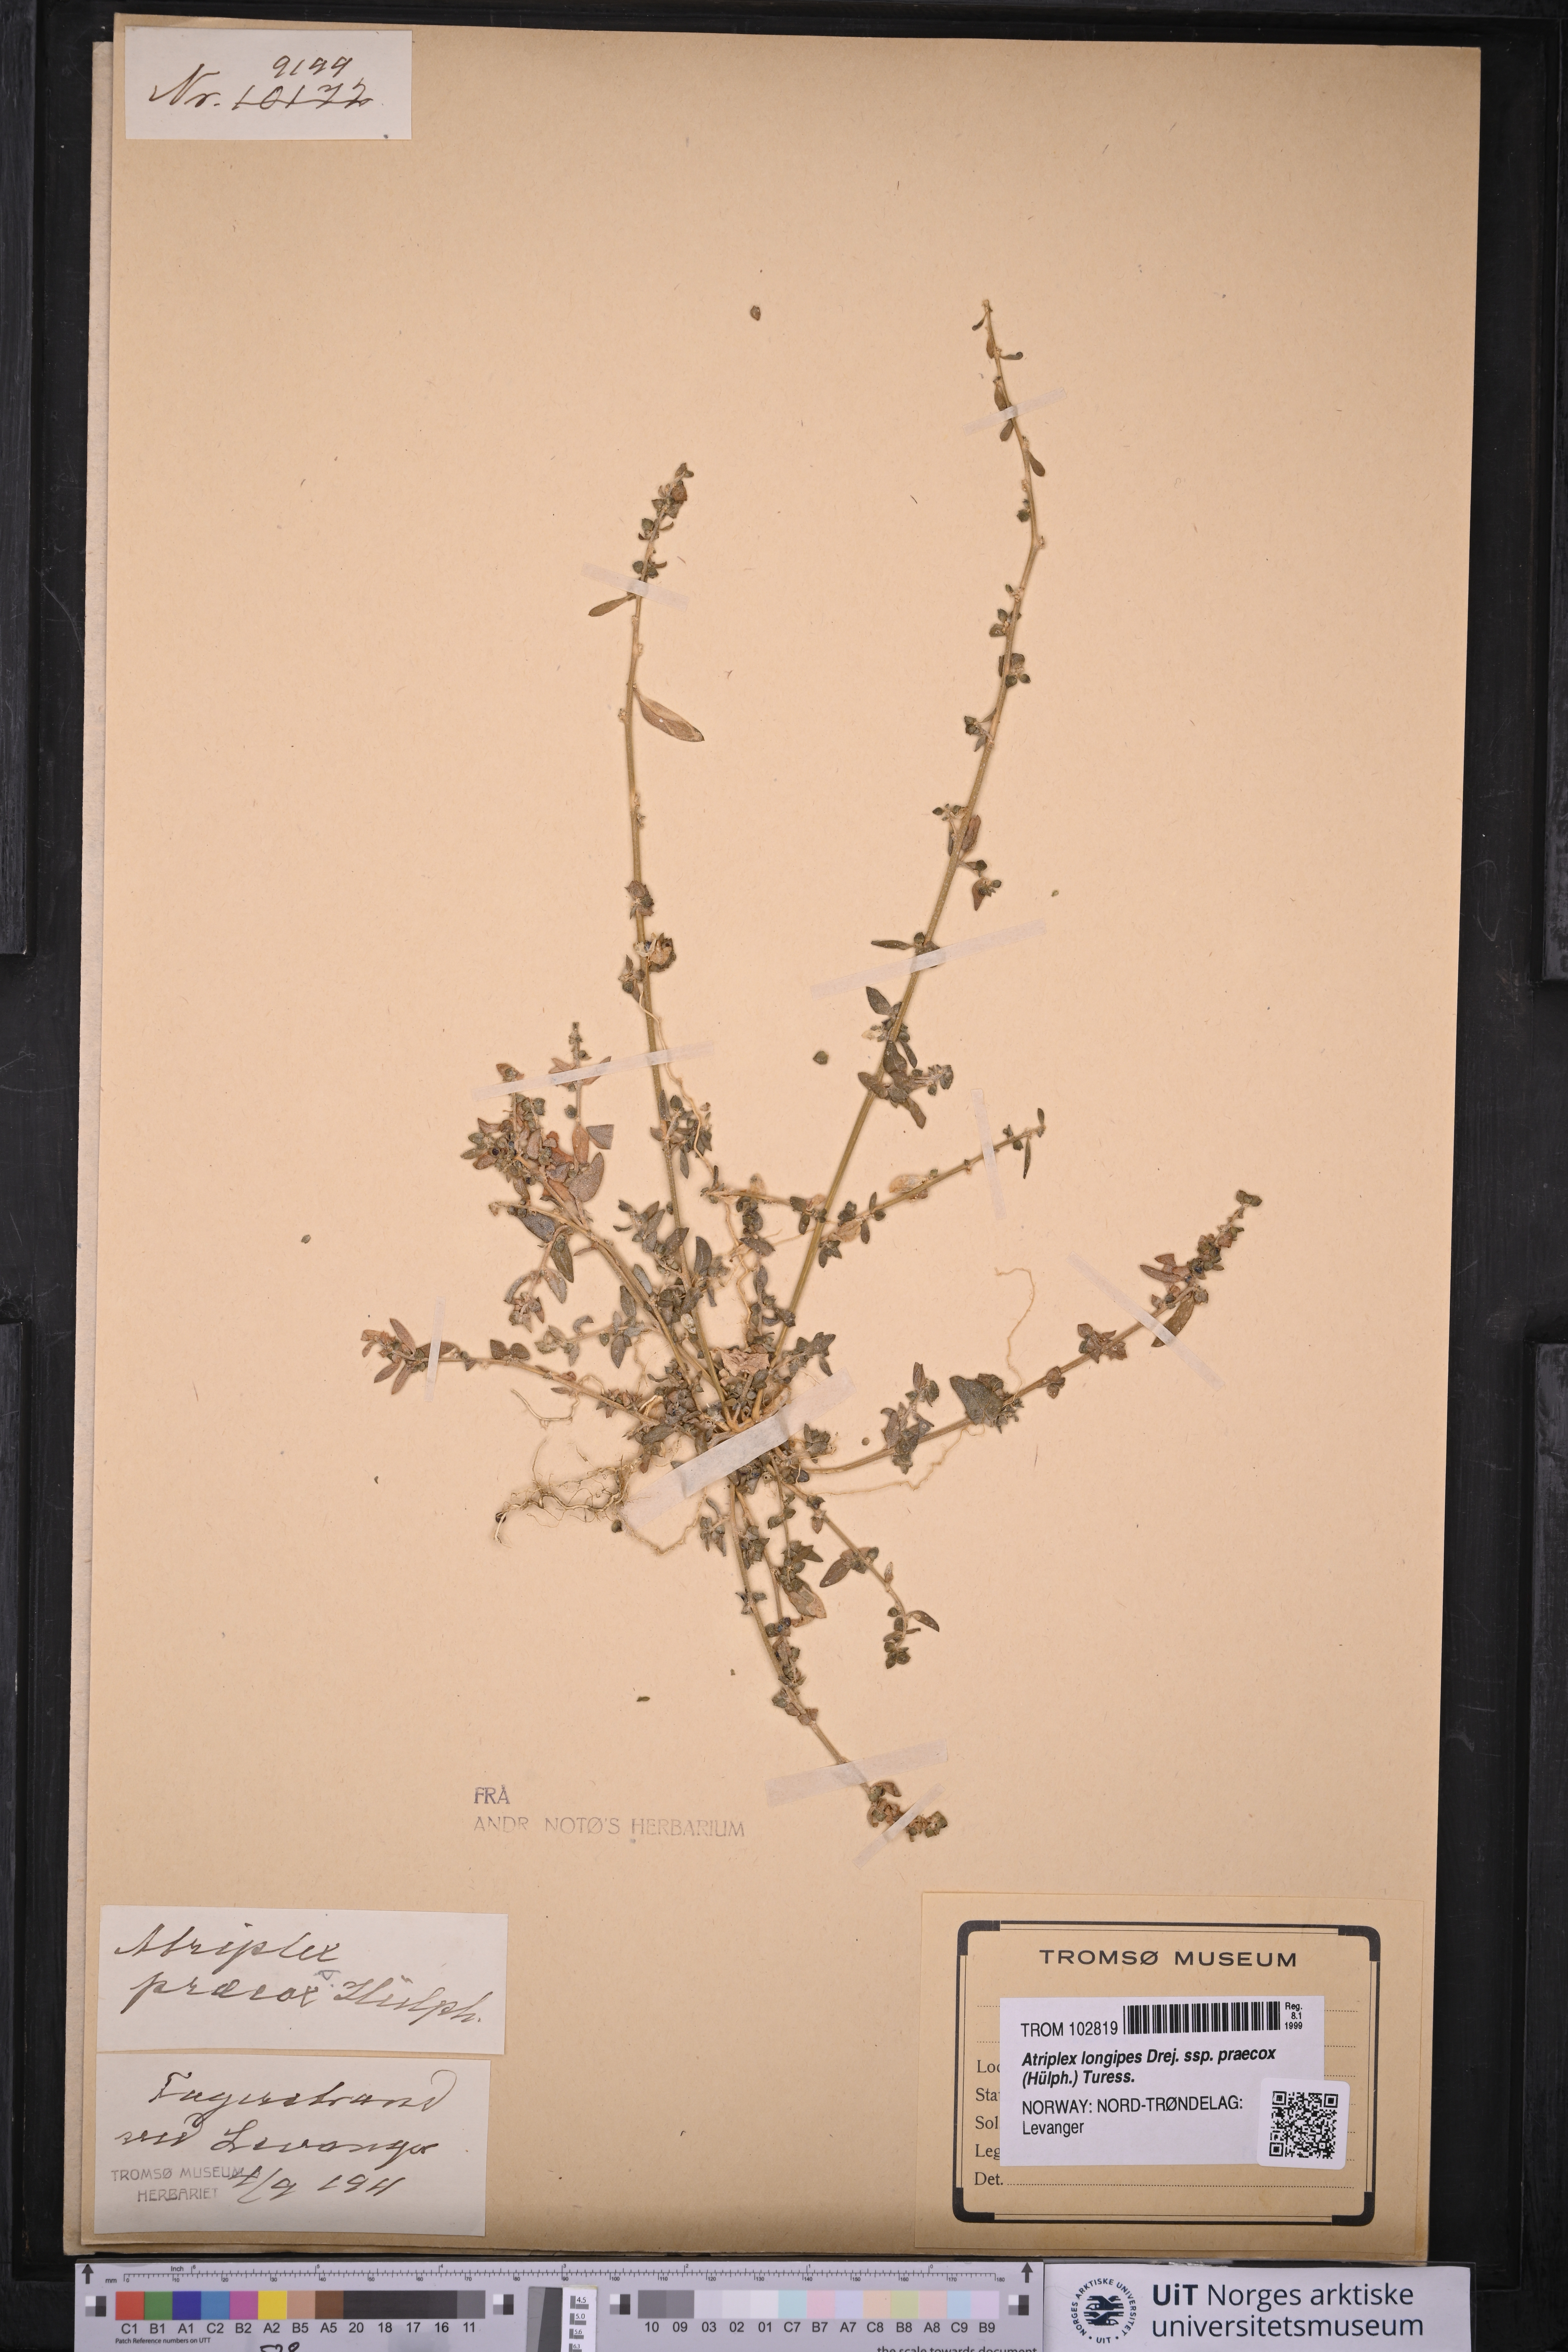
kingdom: Plantae
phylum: Tracheophyta
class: Magnoliopsida
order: Caryophyllales
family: Amaranthaceae
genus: Atriplex
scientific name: Atriplex praecox
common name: Early orache
